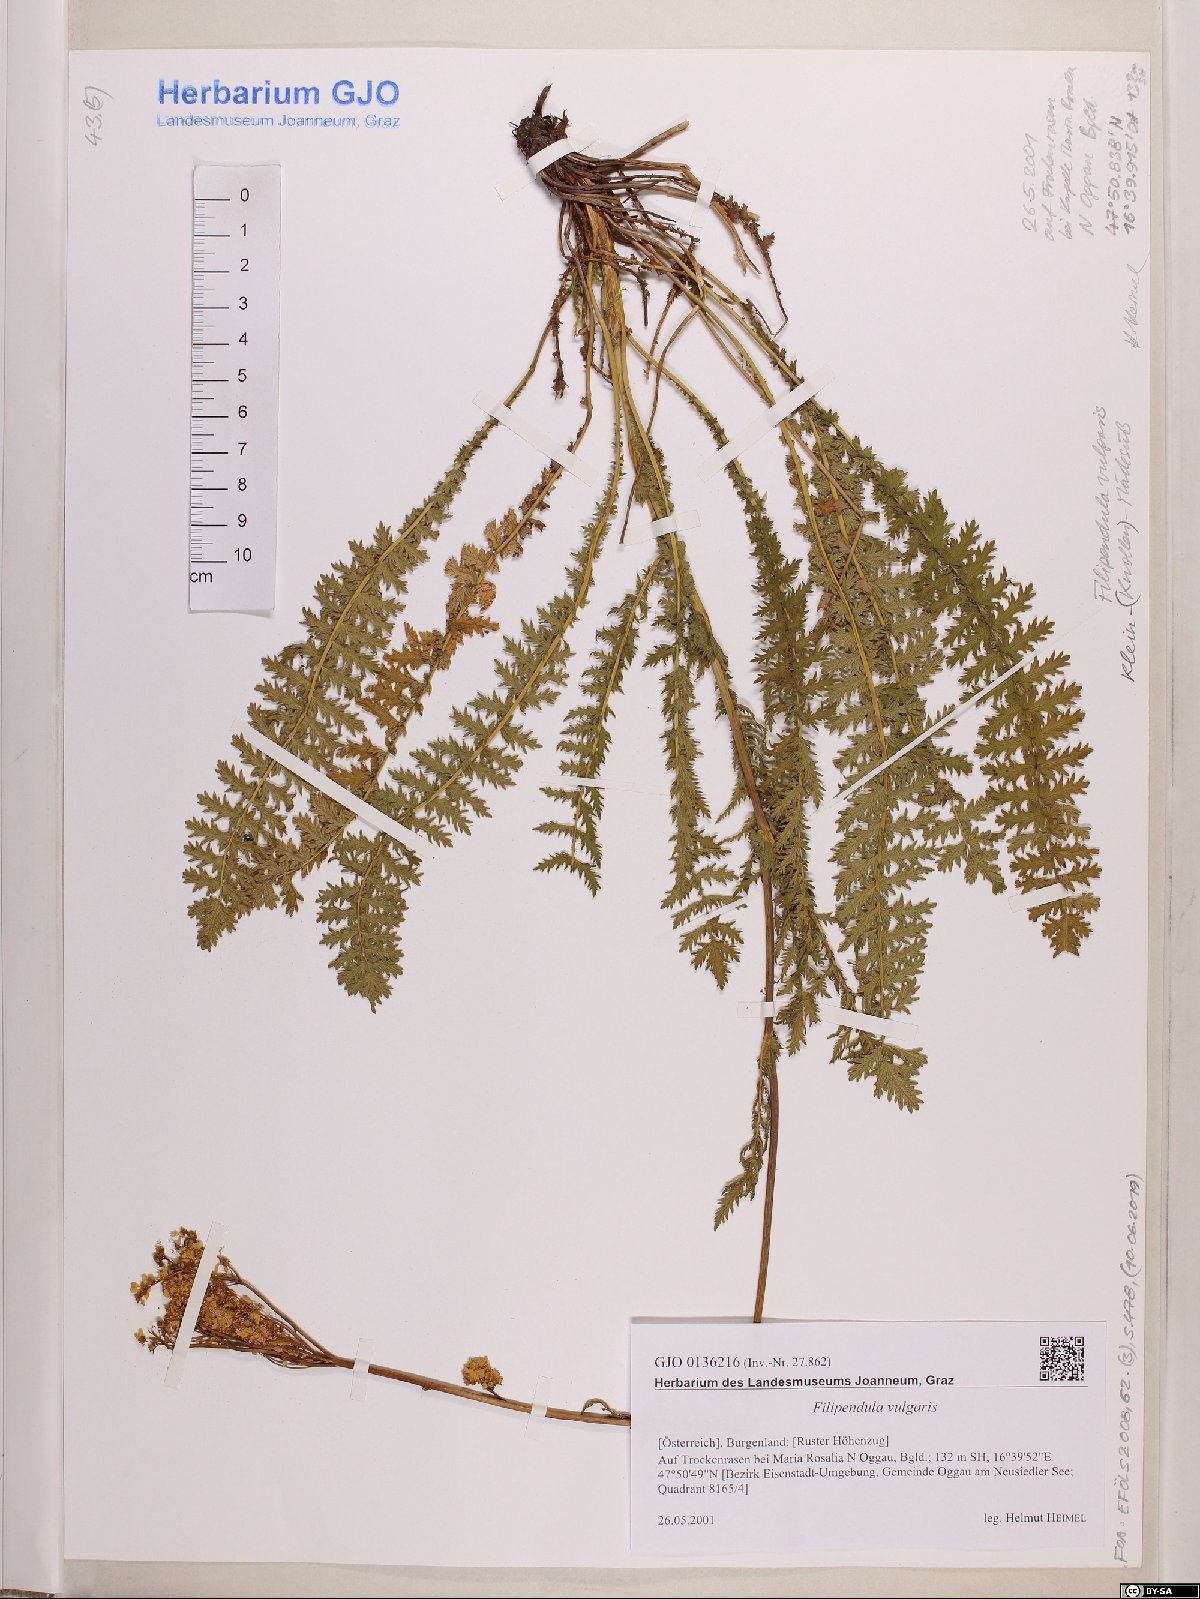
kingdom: Plantae
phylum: Tracheophyta
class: Magnoliopsida
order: Rosales
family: Rosaceae
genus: Filipendula
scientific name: Filipendula vulgaris
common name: Dropwort
